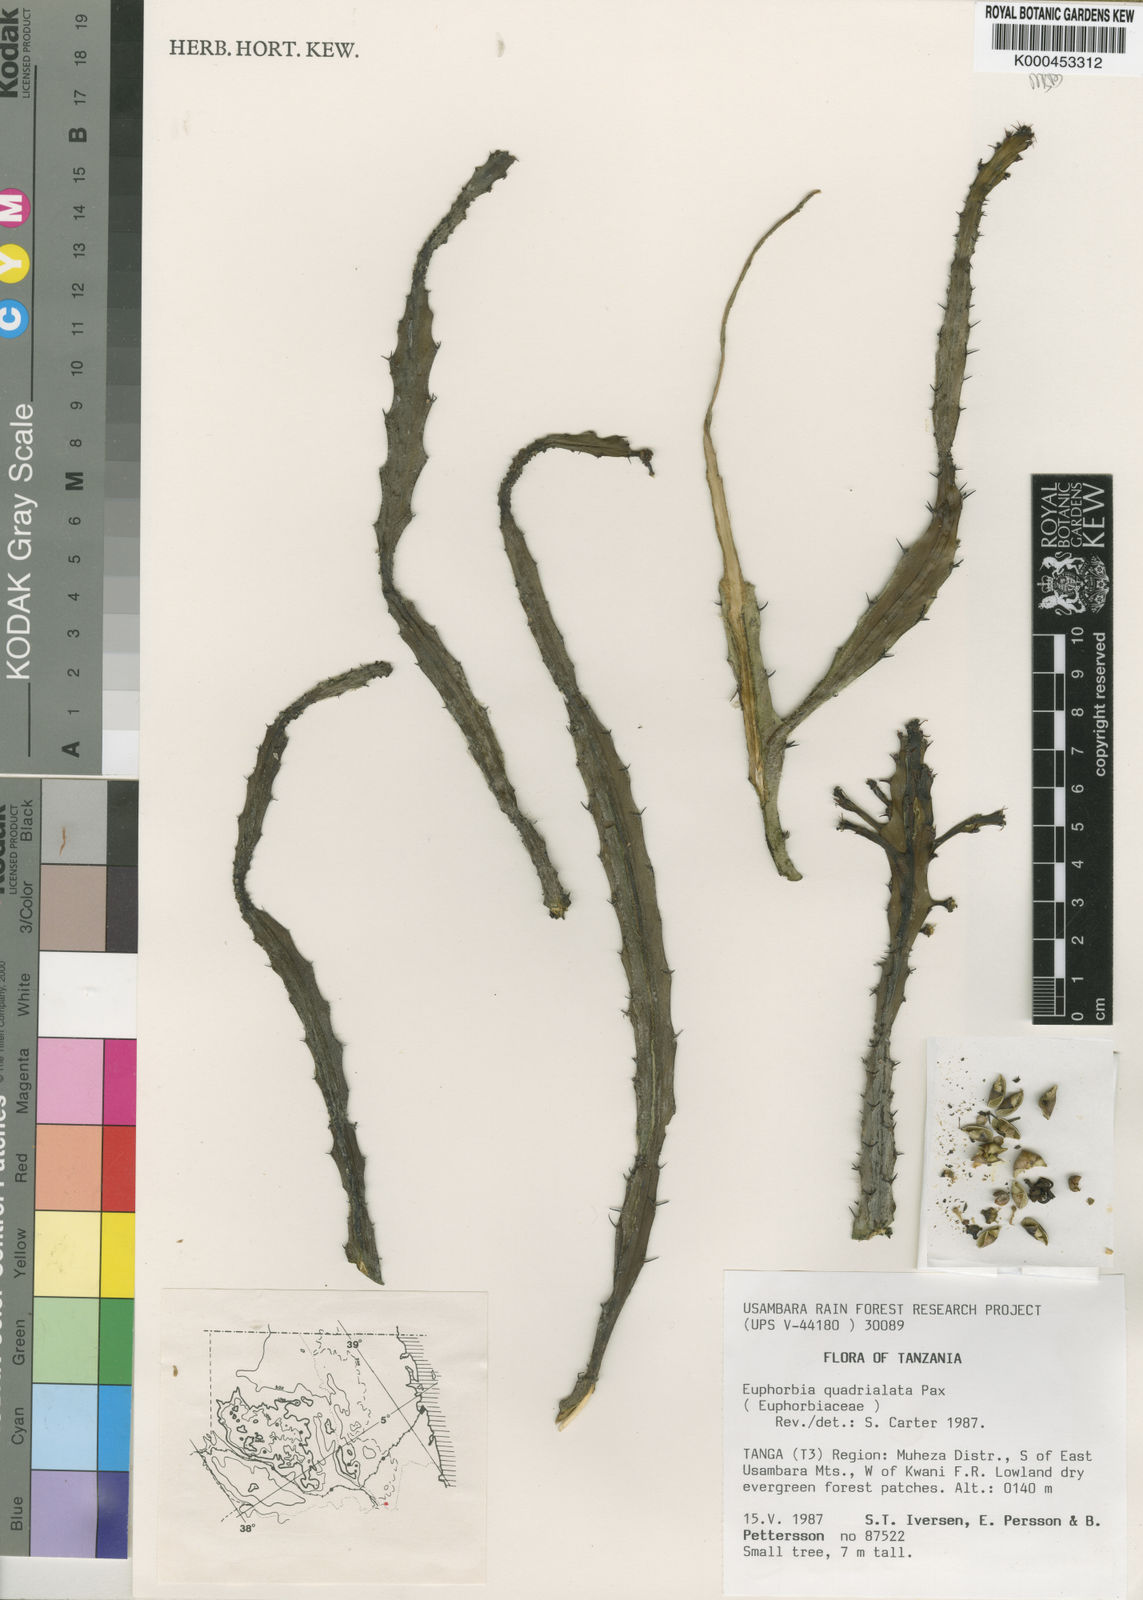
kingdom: Plantae
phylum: Tracheophyta
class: Magnoliopsida
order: Malpighiales
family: Euphorbiaceae
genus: Euphorbia
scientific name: Euphorbia quadrialata
